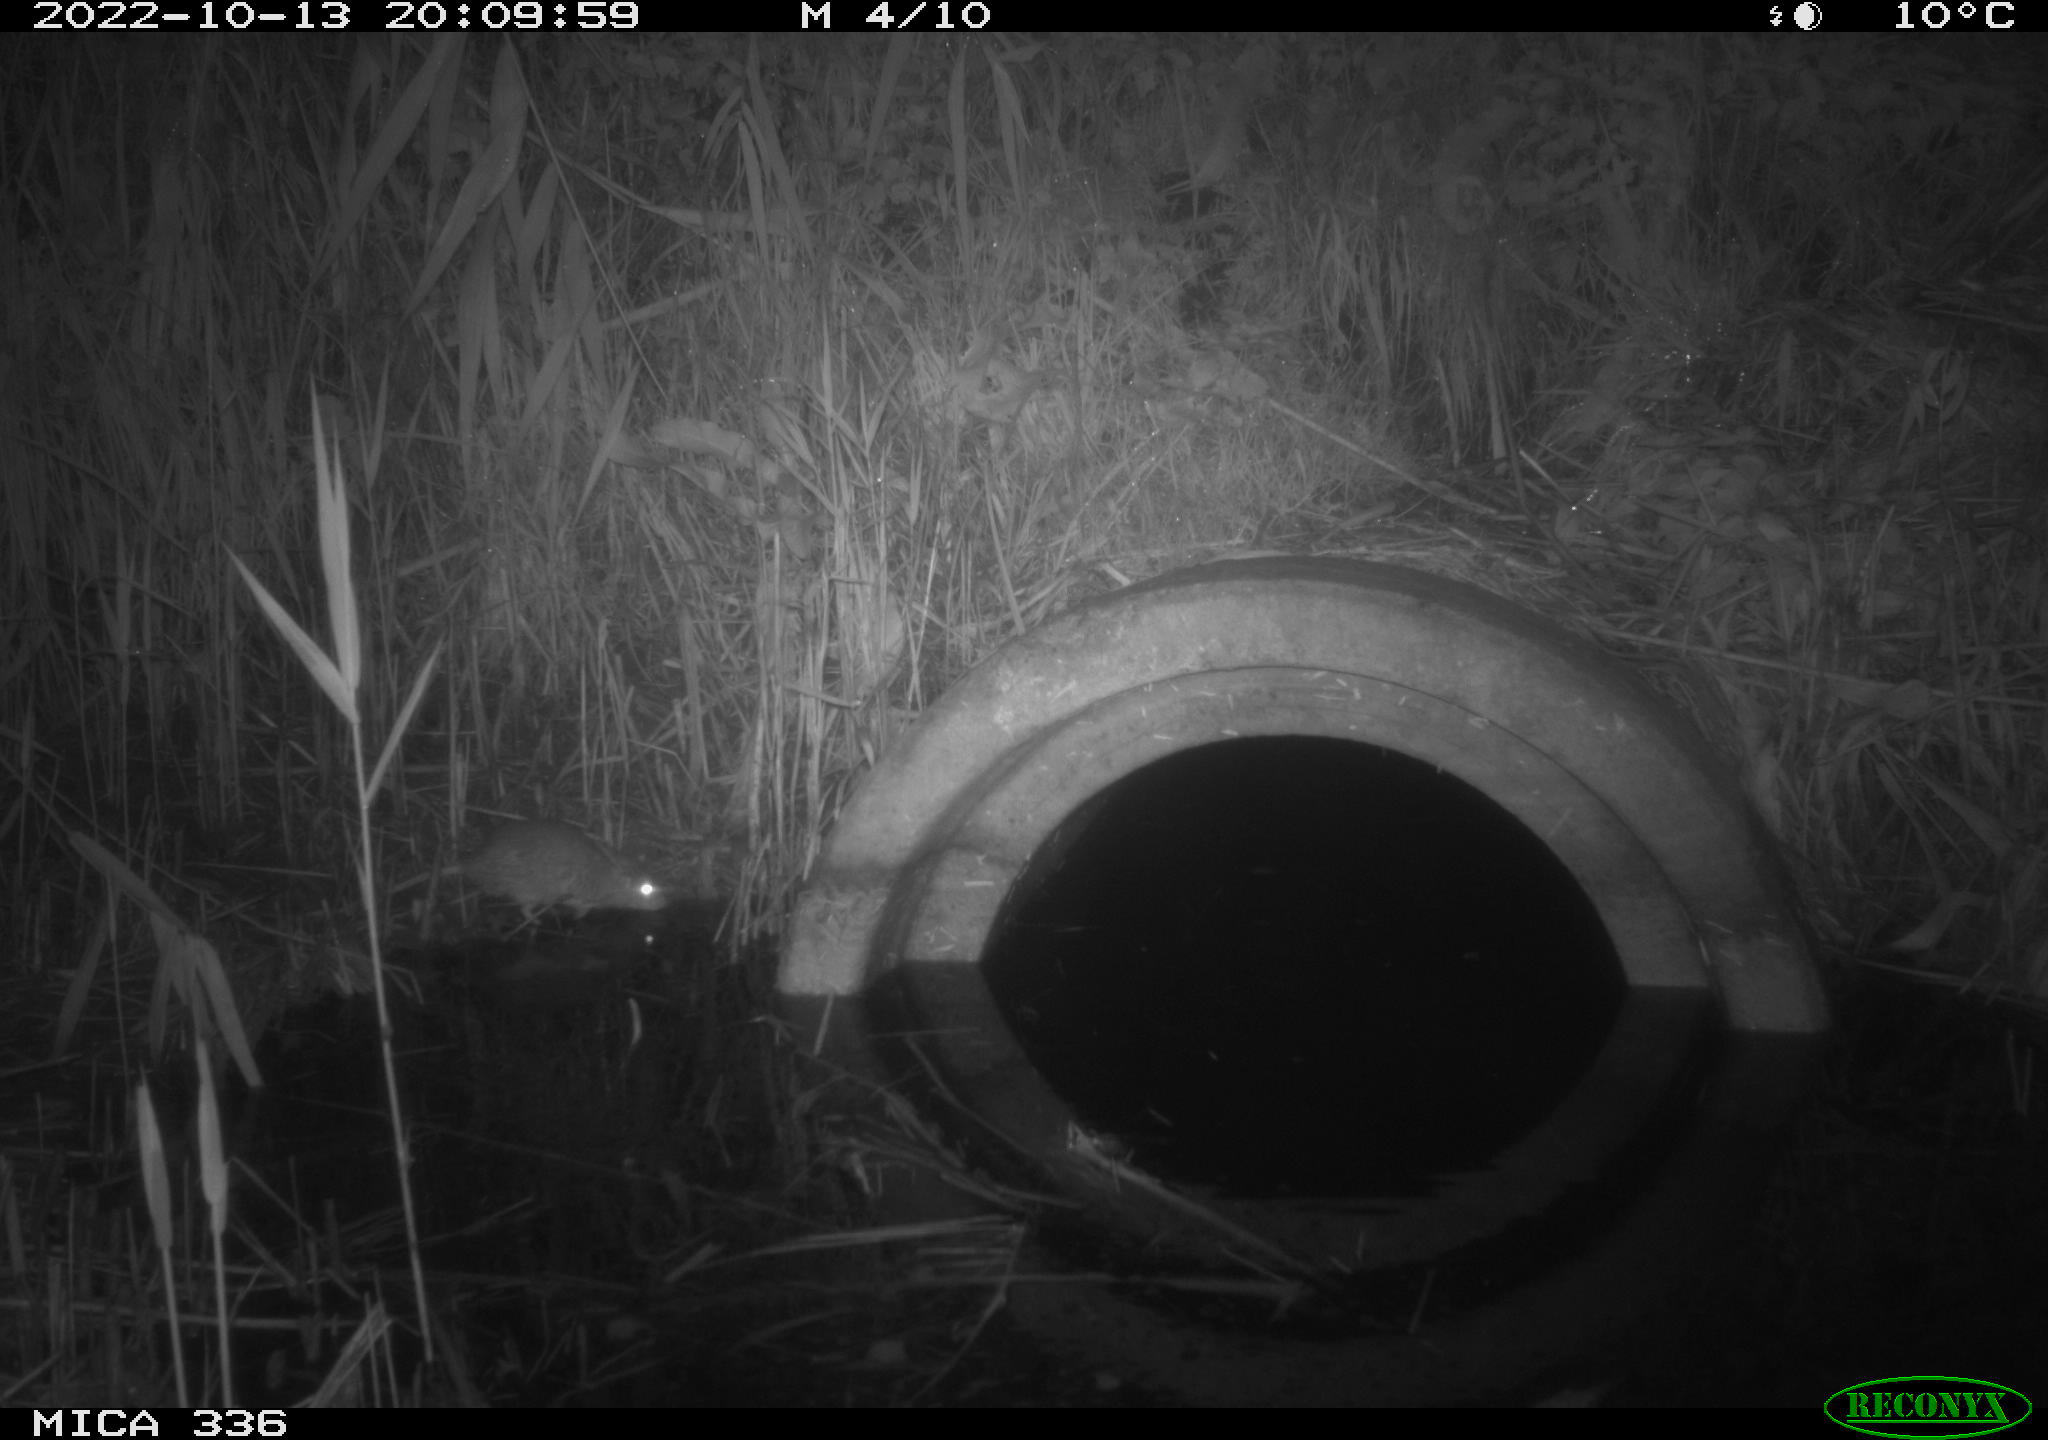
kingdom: Animalia
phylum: Chordata
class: Mammalia
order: Rodentia
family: Muridae
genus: Rattus
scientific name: Rattus norvegicus
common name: Brown rat
